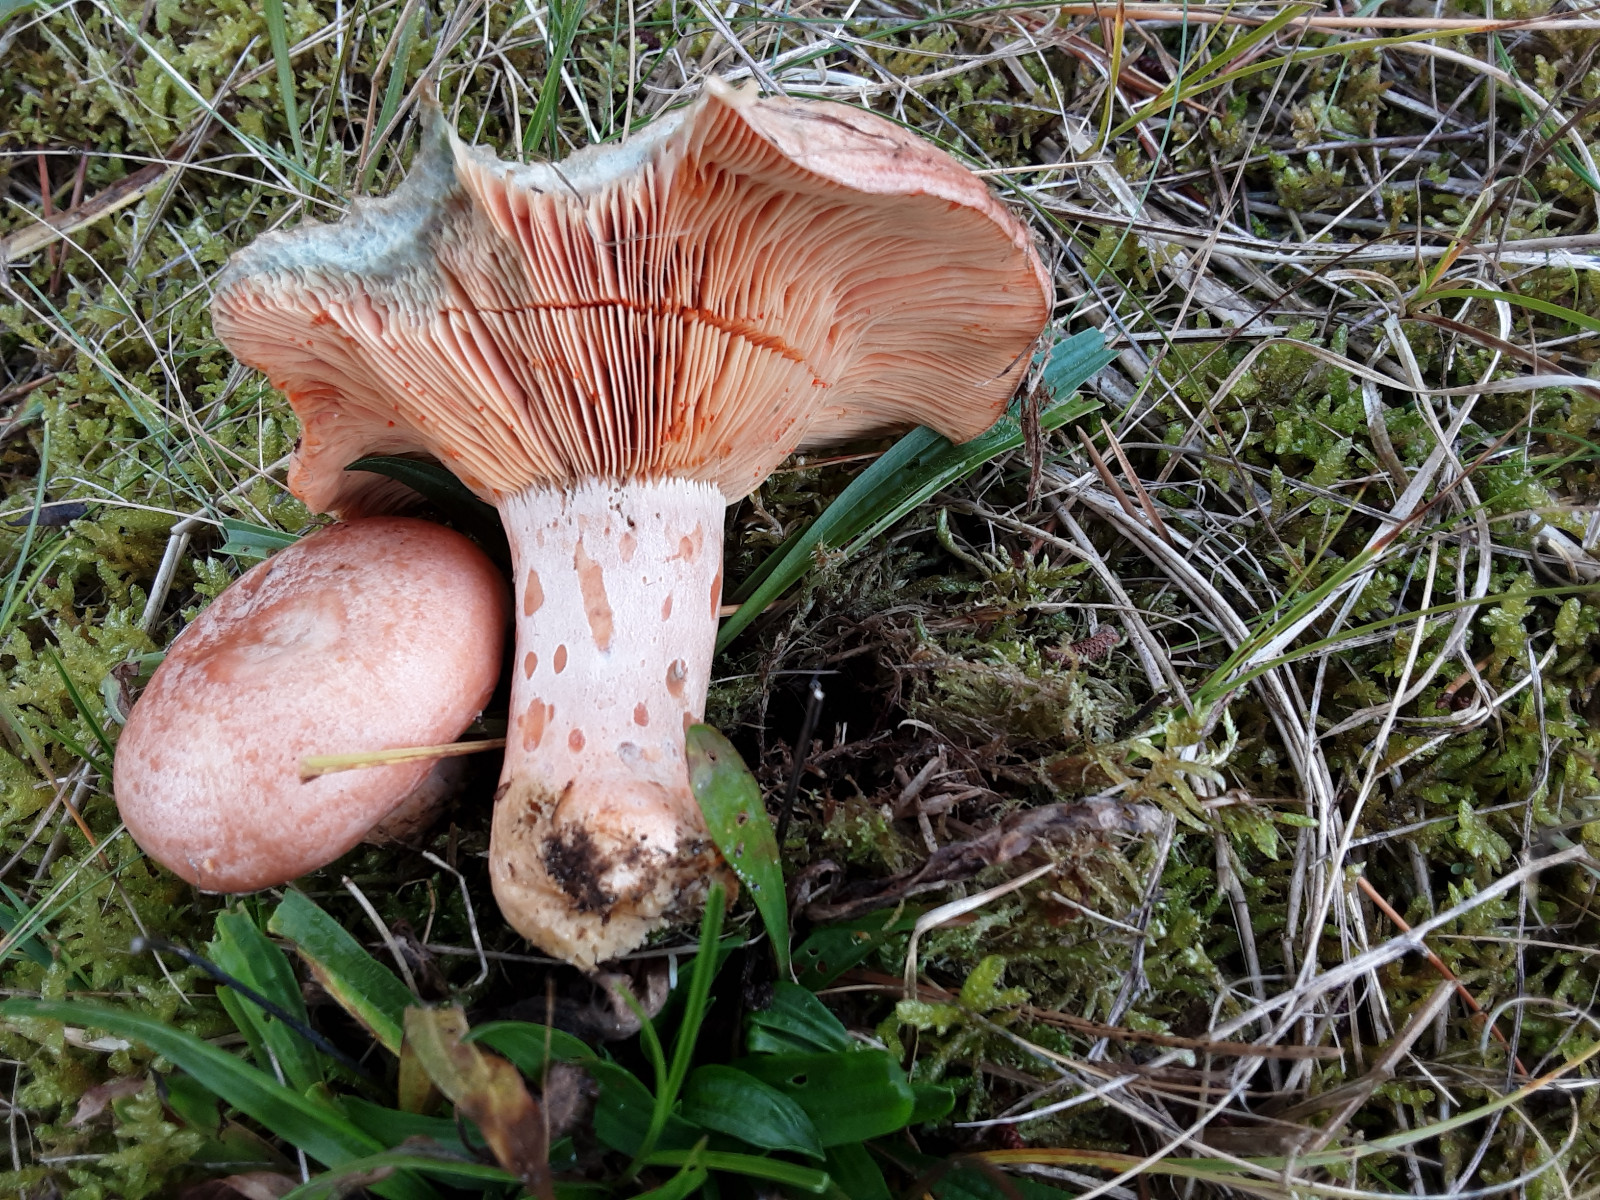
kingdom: Fungi
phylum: Basidiomycota
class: Agaricomycetes
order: Russulales
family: Russulaceae
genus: Lactarius
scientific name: Lactarius deliciosus
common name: velsmagende mælkehat
